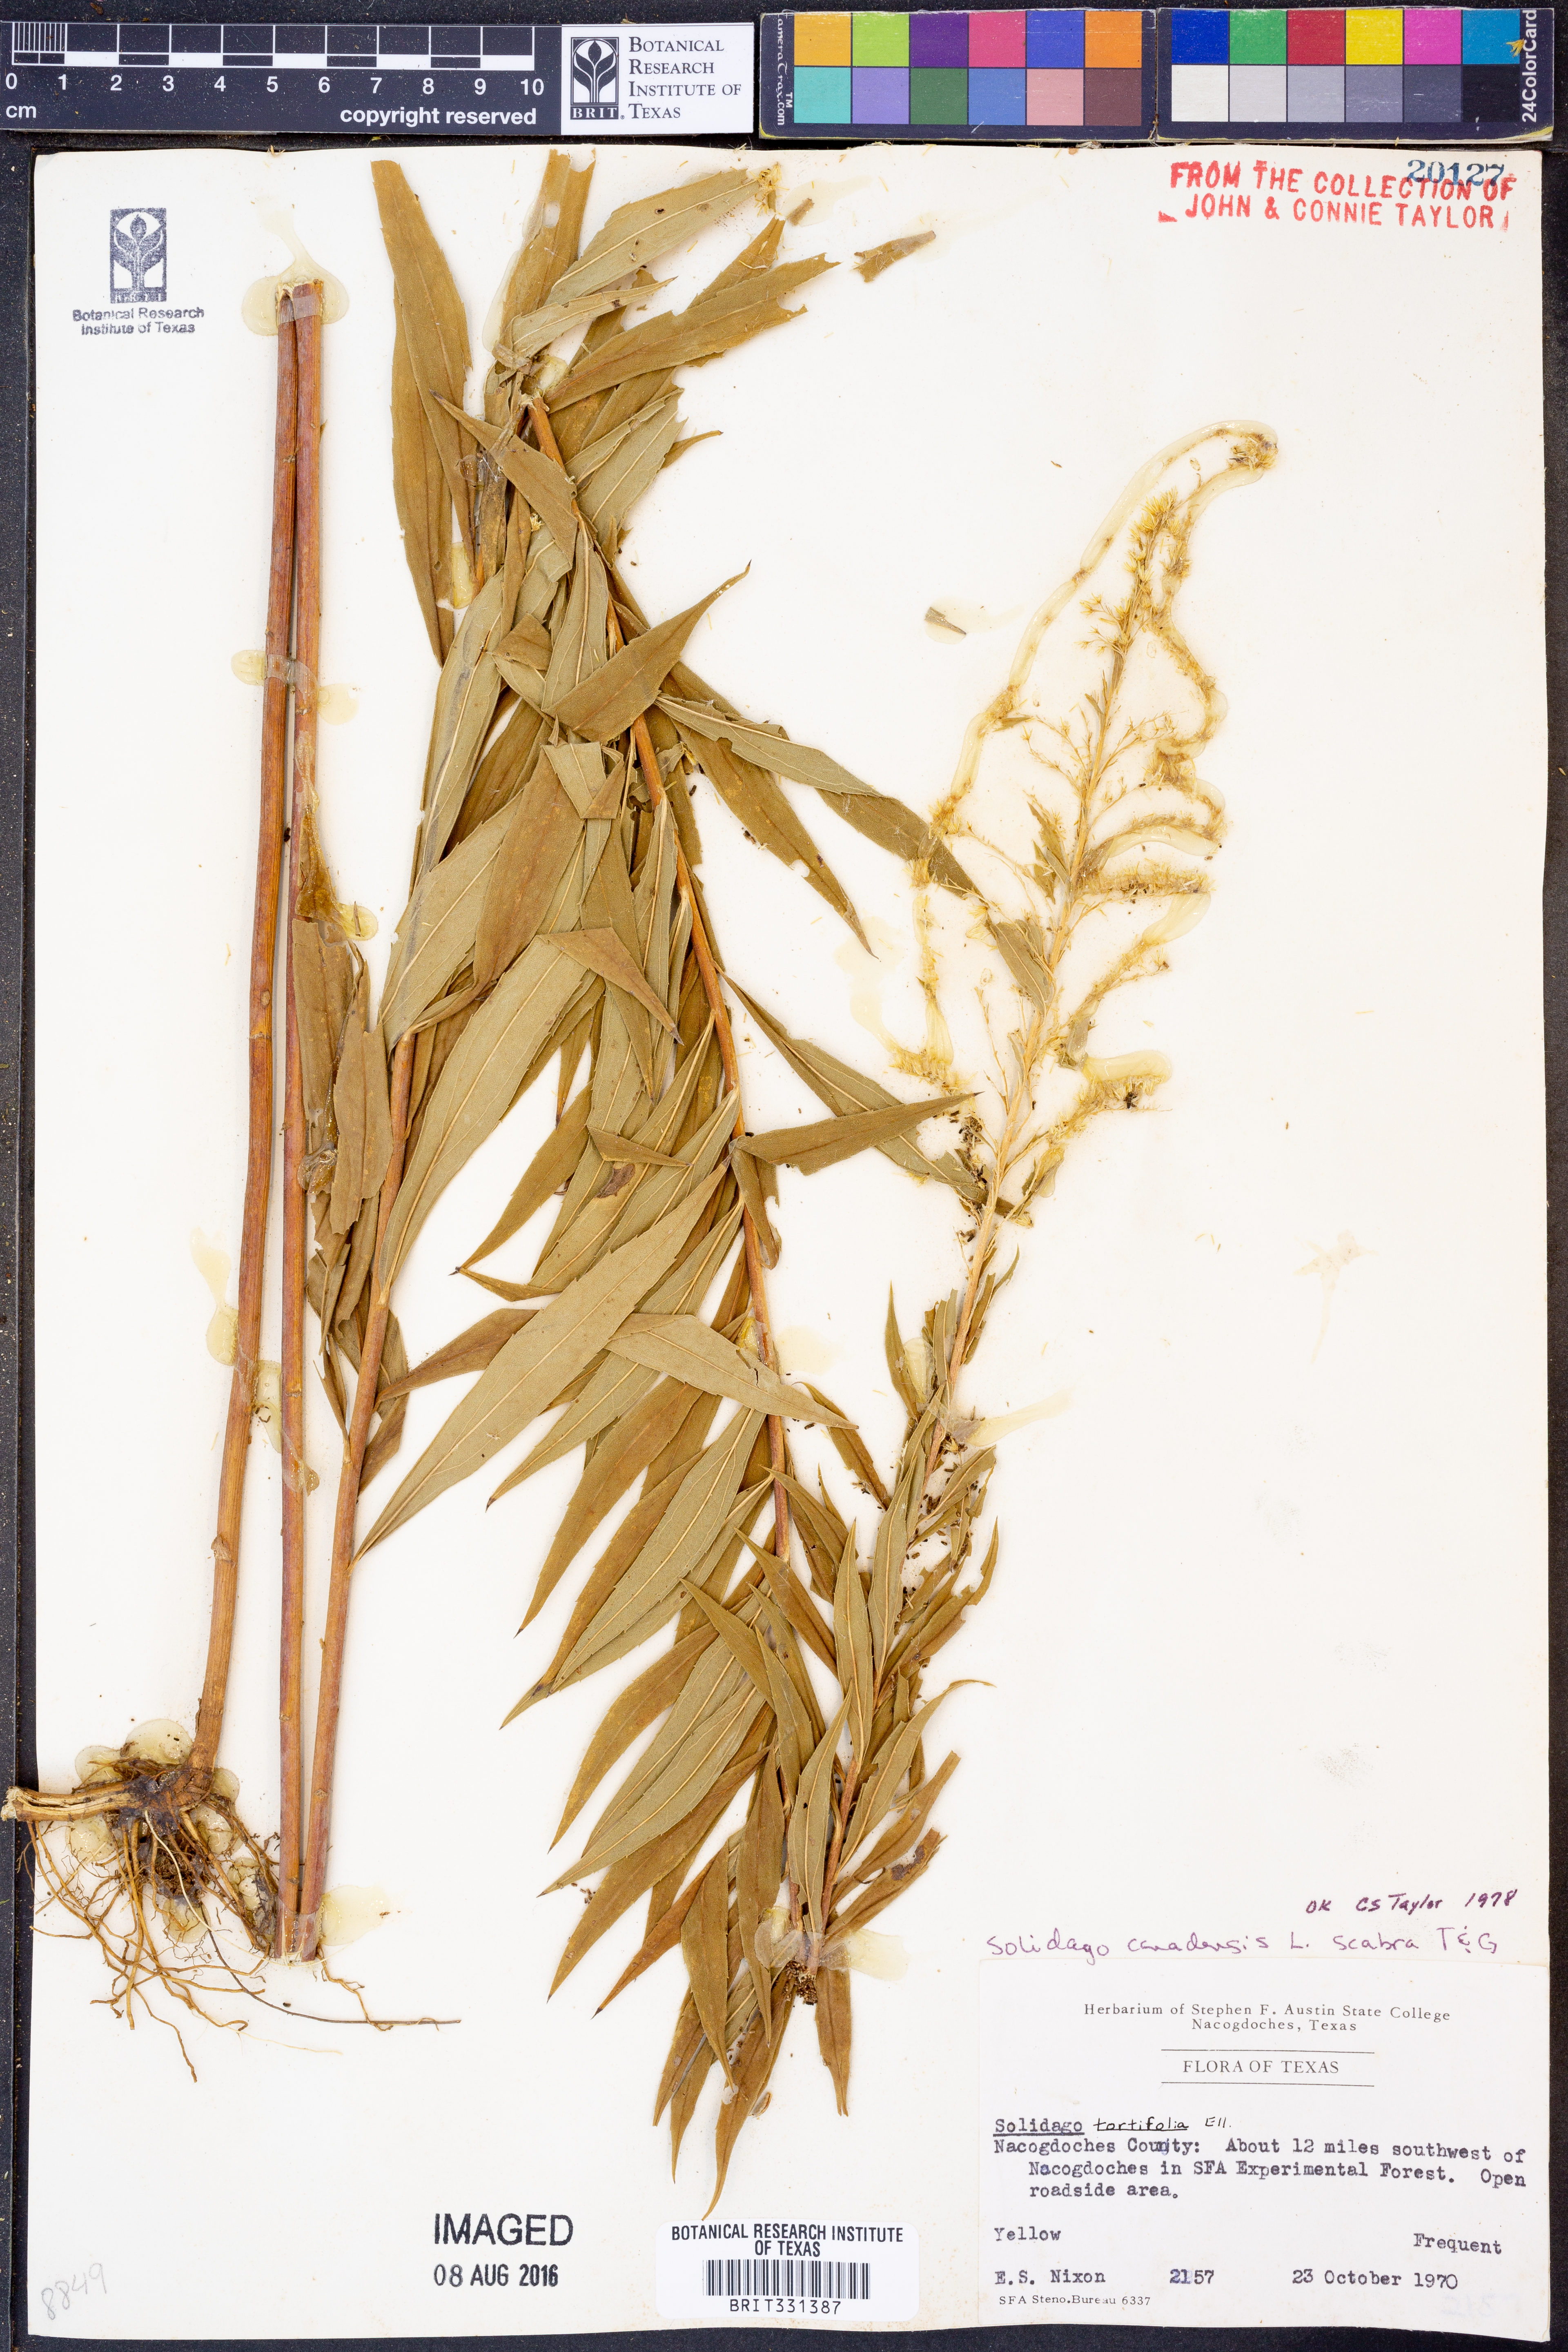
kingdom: Plantae
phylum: Tracheophyta
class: Magnoliopsida
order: Asterales
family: Asteraceae
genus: Solidago
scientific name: Solidago altissima
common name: Late goldenrod
